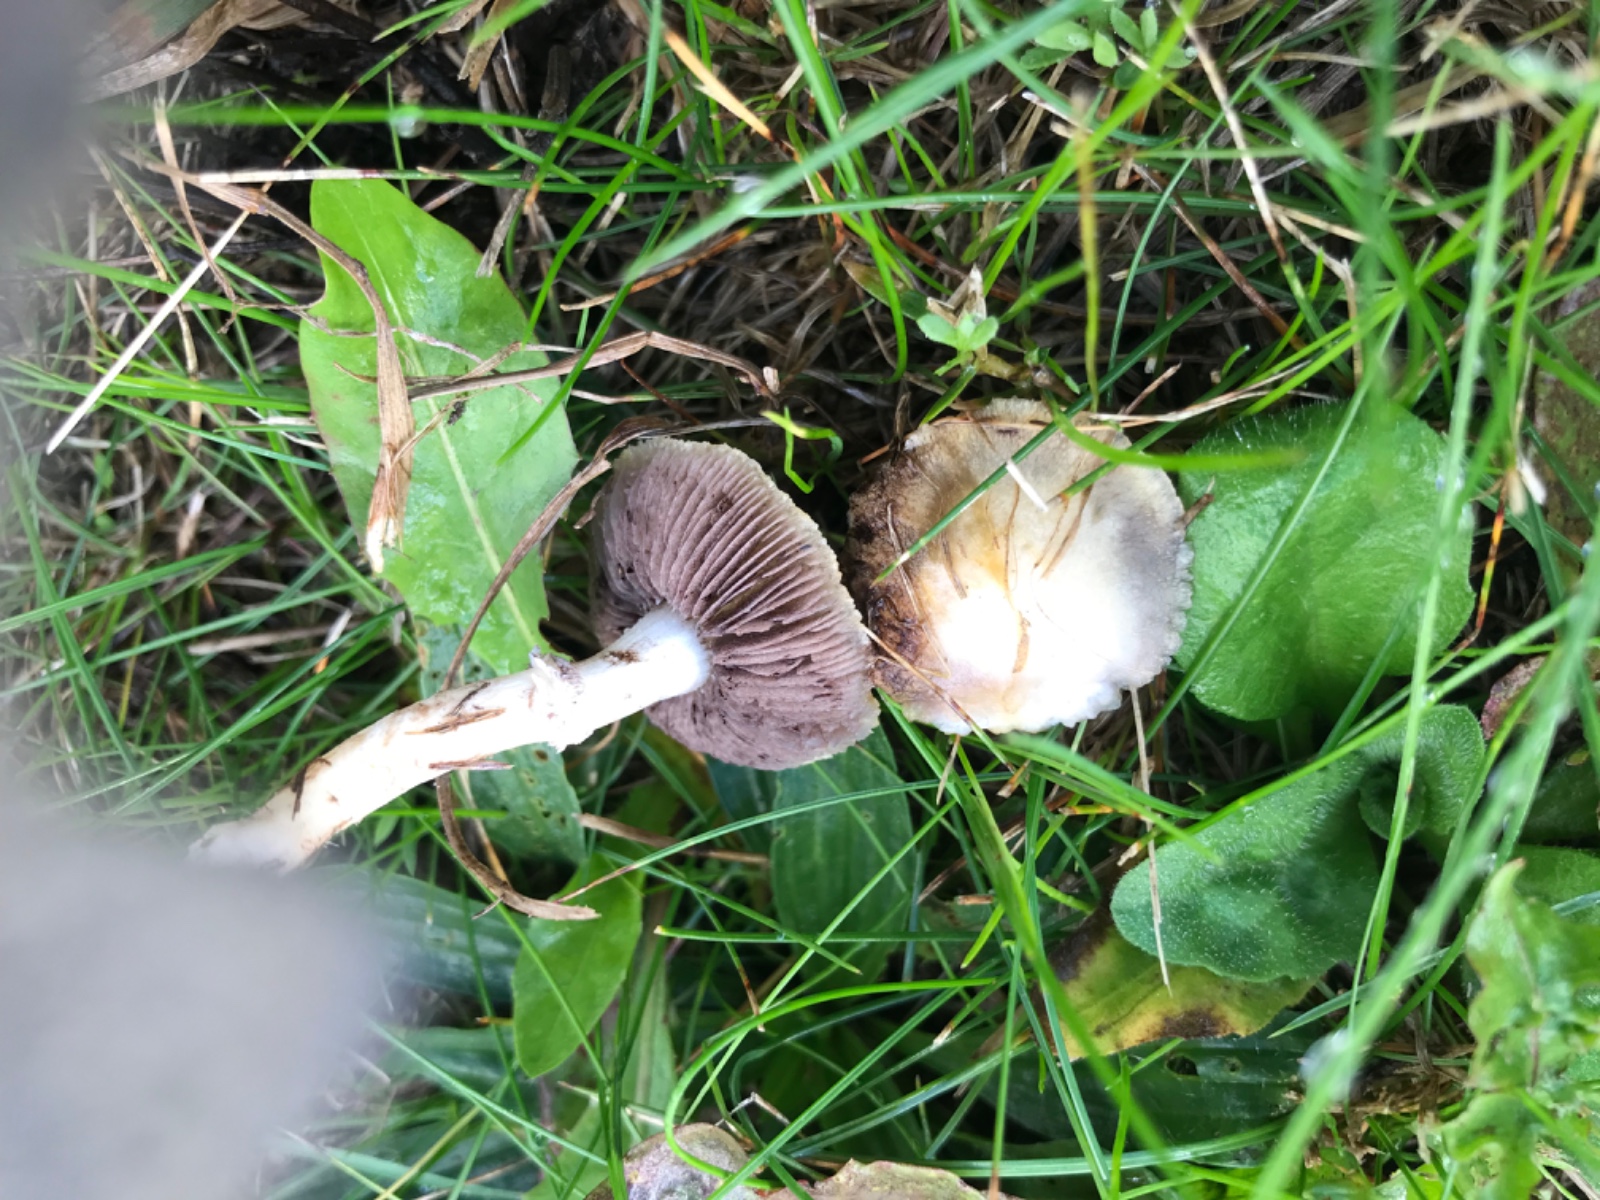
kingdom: Fungi
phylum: Basidiomycota
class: Agaricomycetes
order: Agaricales
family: Hymenogastraceae
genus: Psilocybe
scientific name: Psilocybe coronilla
